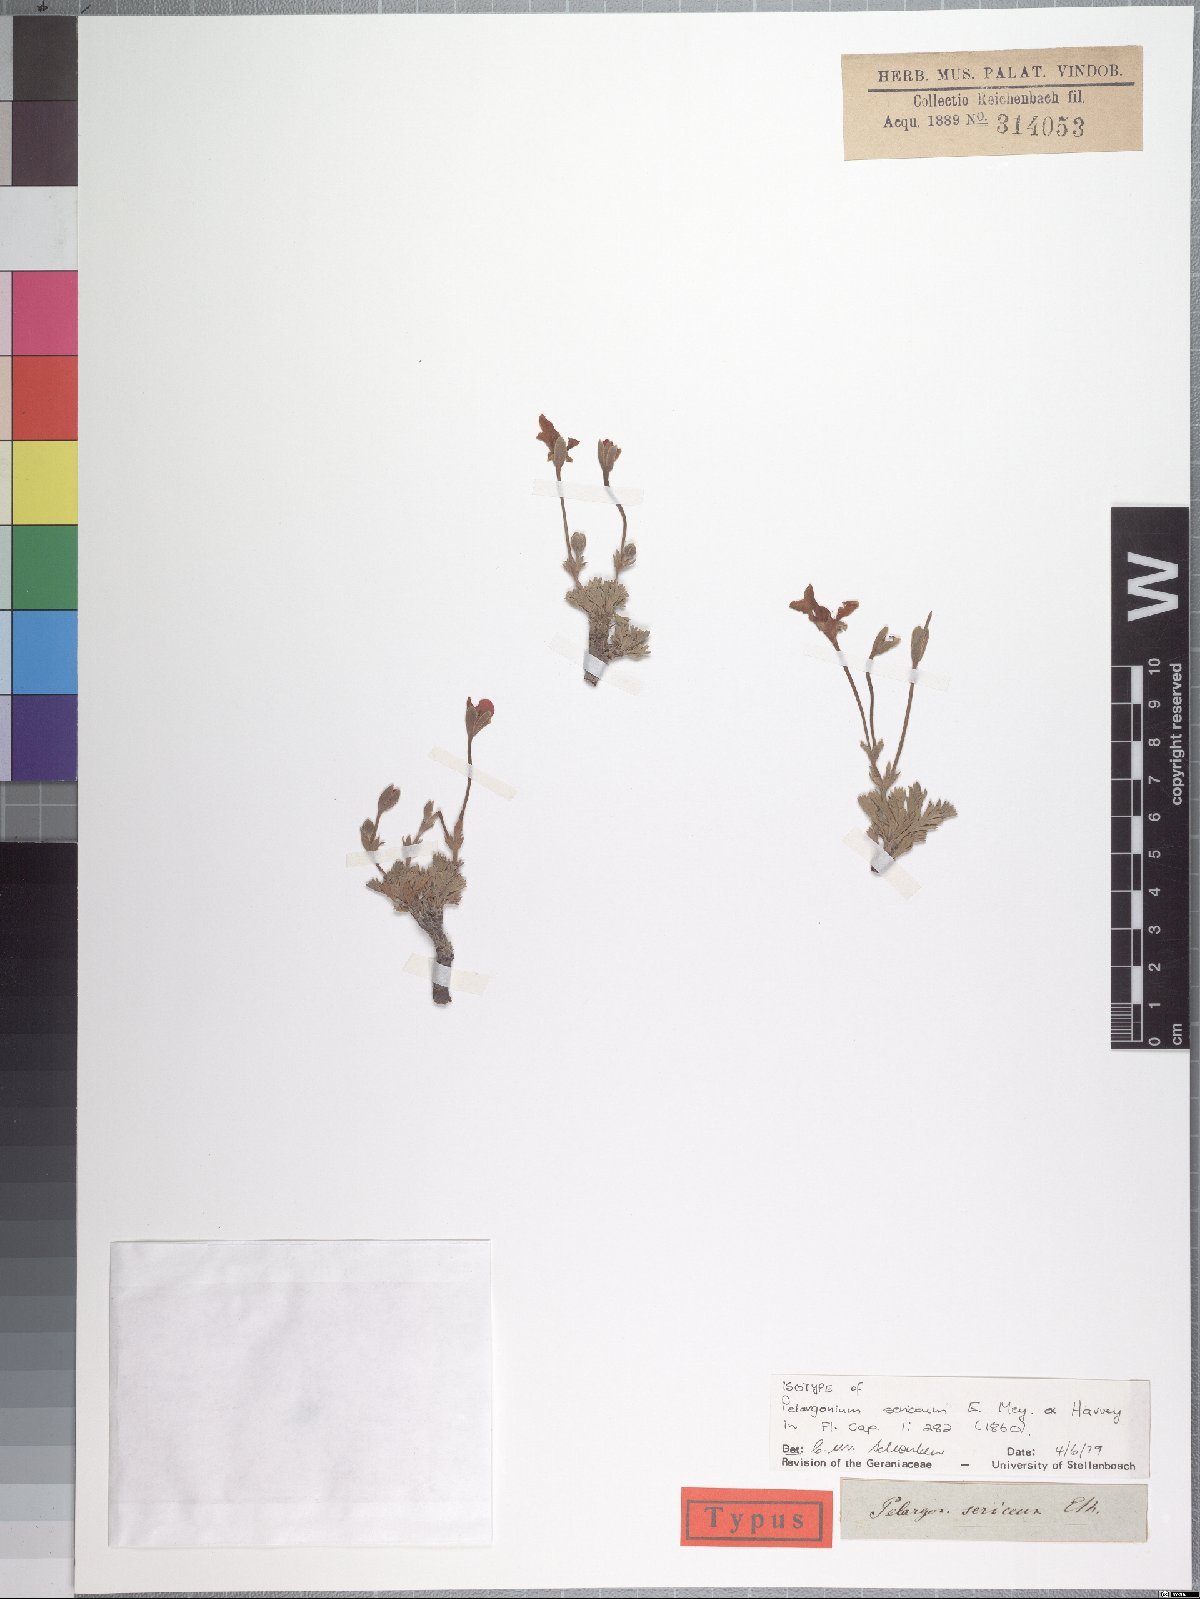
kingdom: Plantae
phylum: Tracheophyta
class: Magnoliopsida
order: Geraniales
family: Geraniaceae
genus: Pelargonium
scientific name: Pelargonium sericifolium
